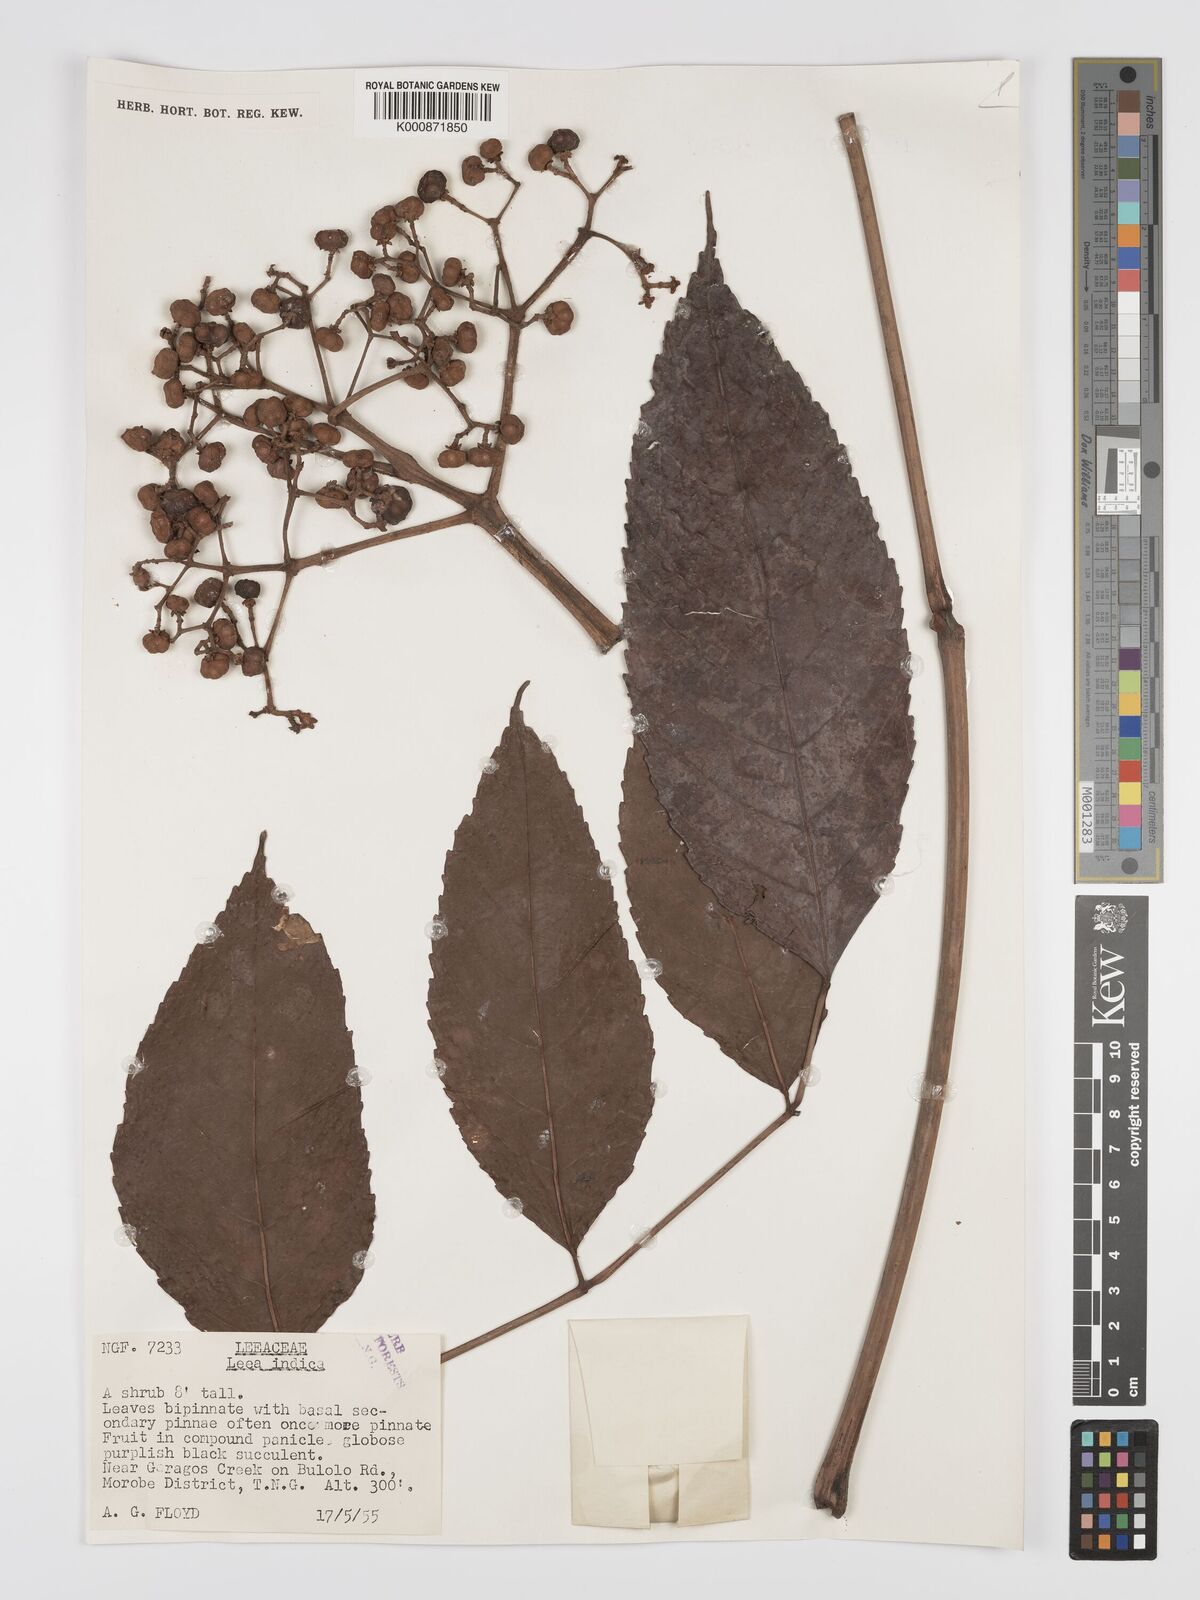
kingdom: Plantae
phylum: Tracheophyta
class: Magnoliopsida
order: Vitales
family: Vitaceae
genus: Leea
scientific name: Leea indica
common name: Bandicoot-berry
